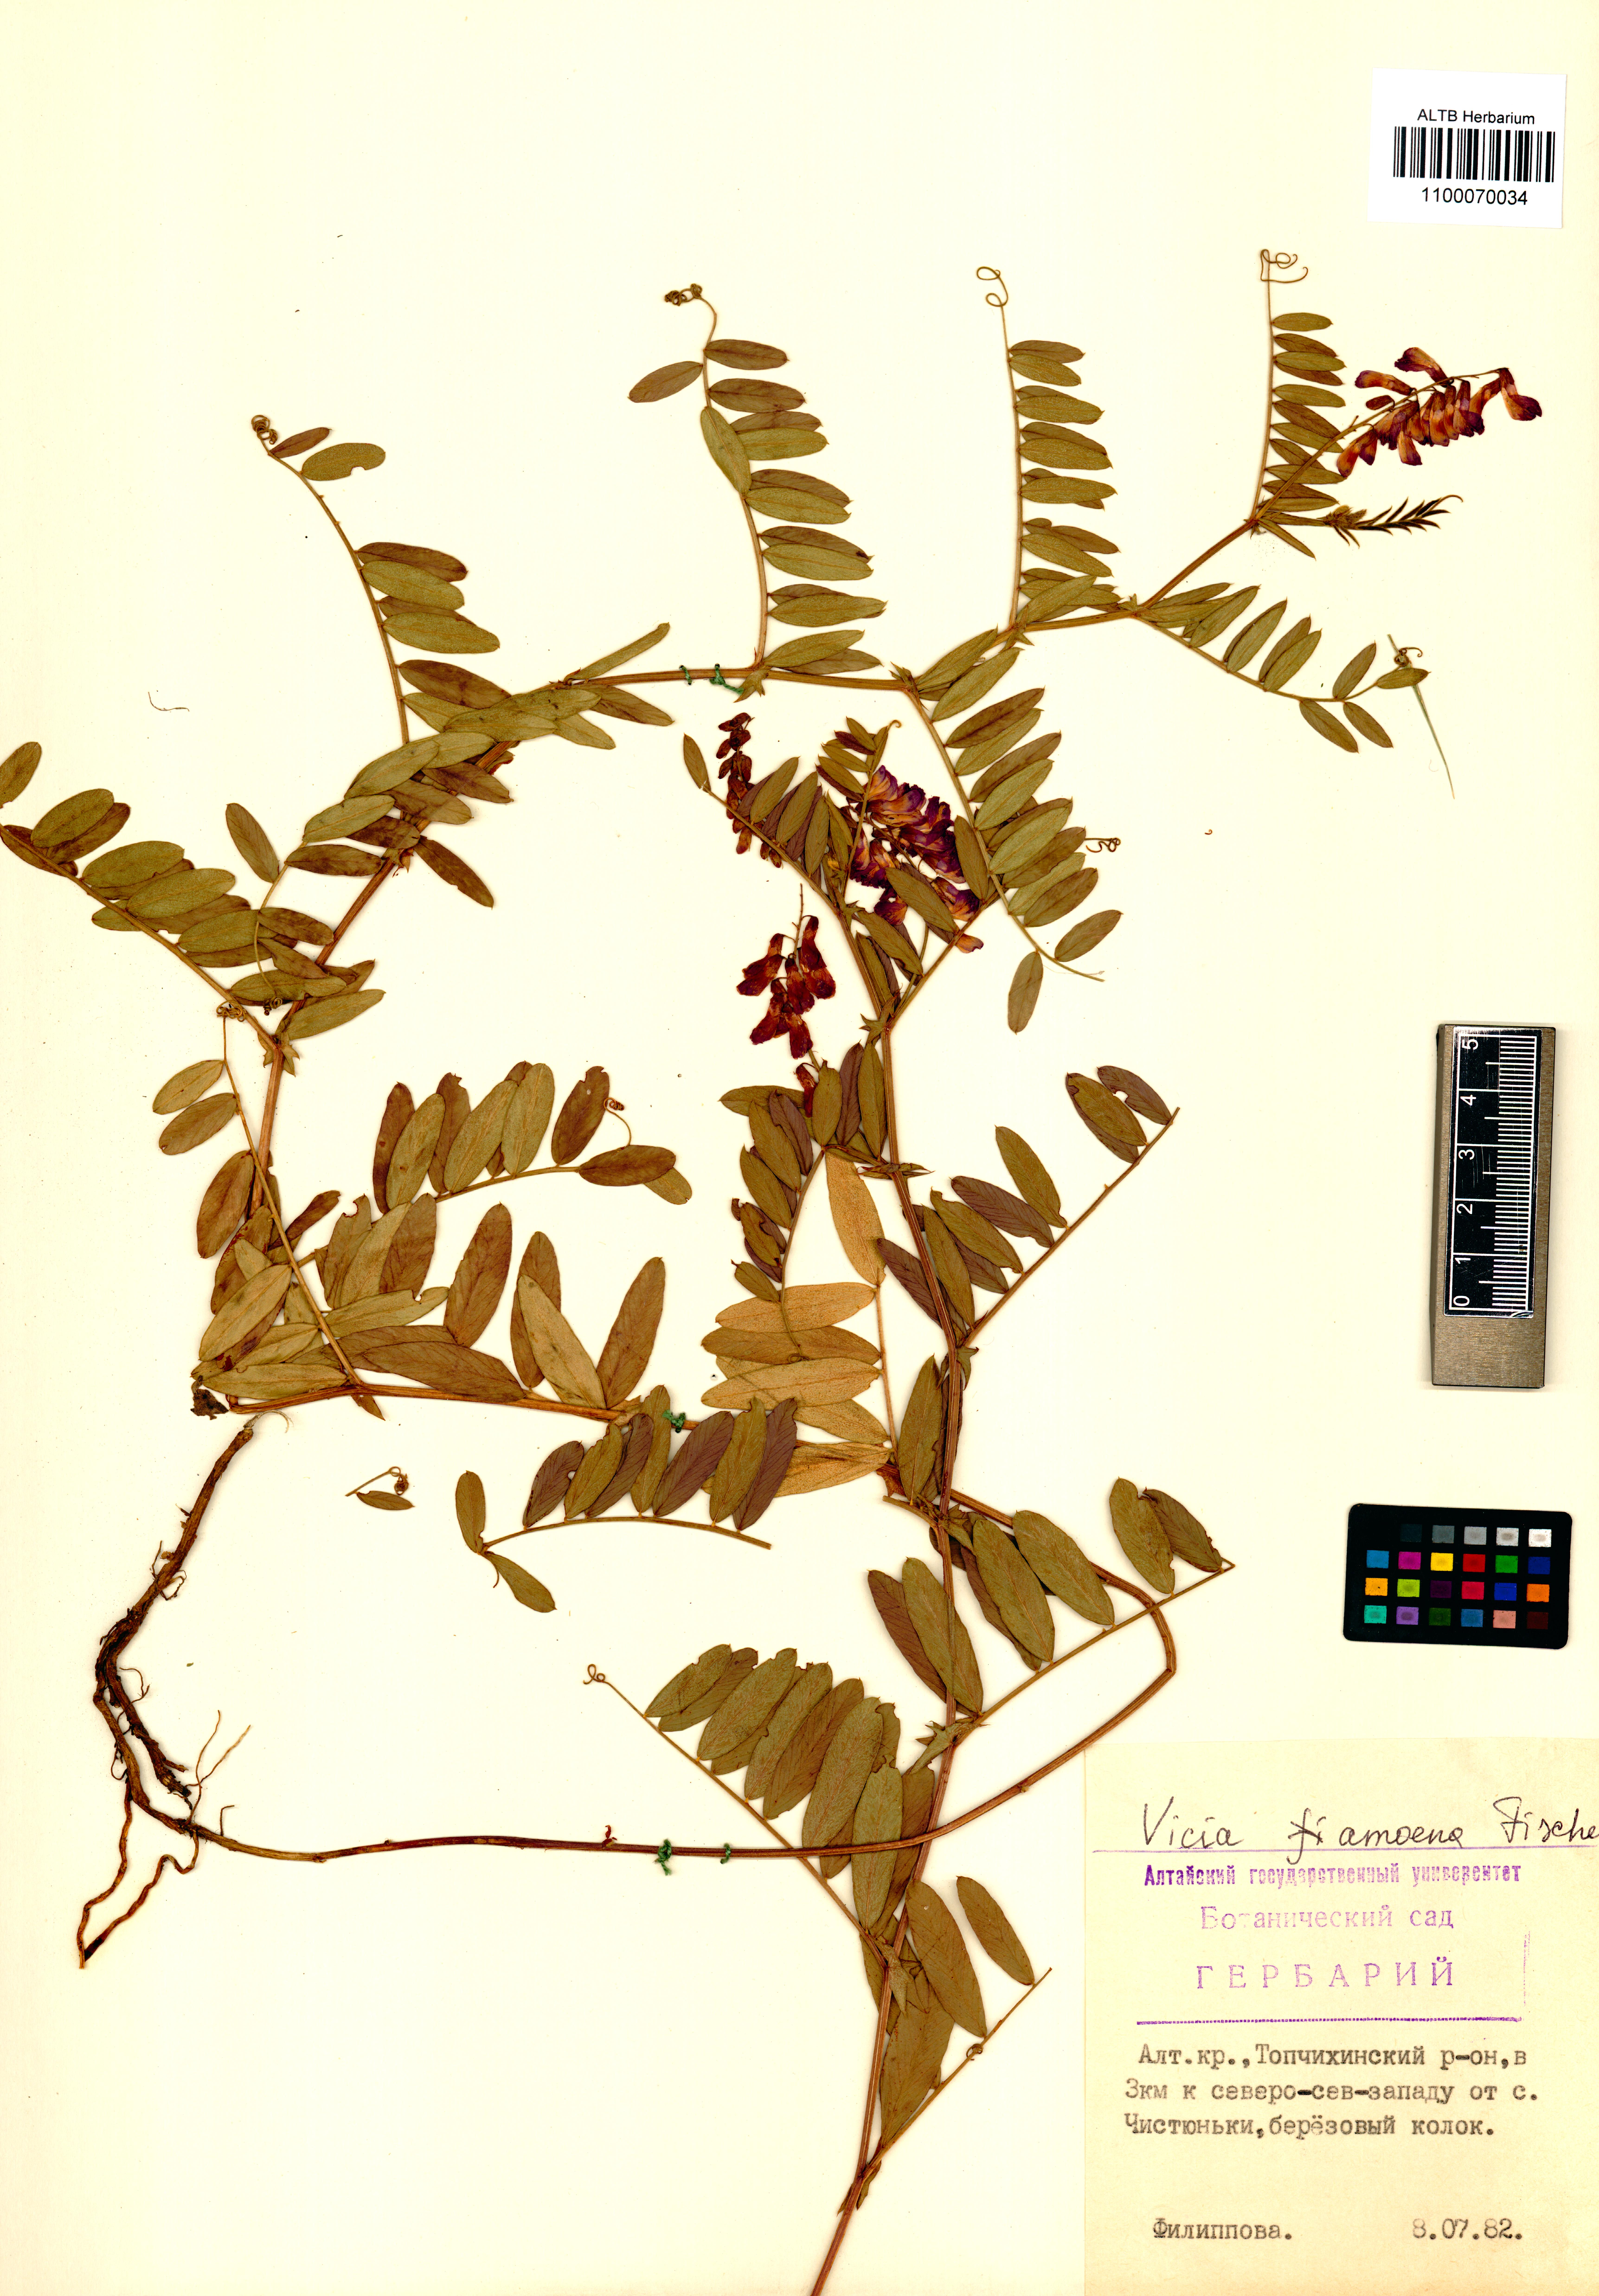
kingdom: Plantae
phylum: Tracheophyta
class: Magnoliopsida
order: Fabales
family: Fabaceae
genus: Vicia
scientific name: Vicia amoena
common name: Cheder ebs
